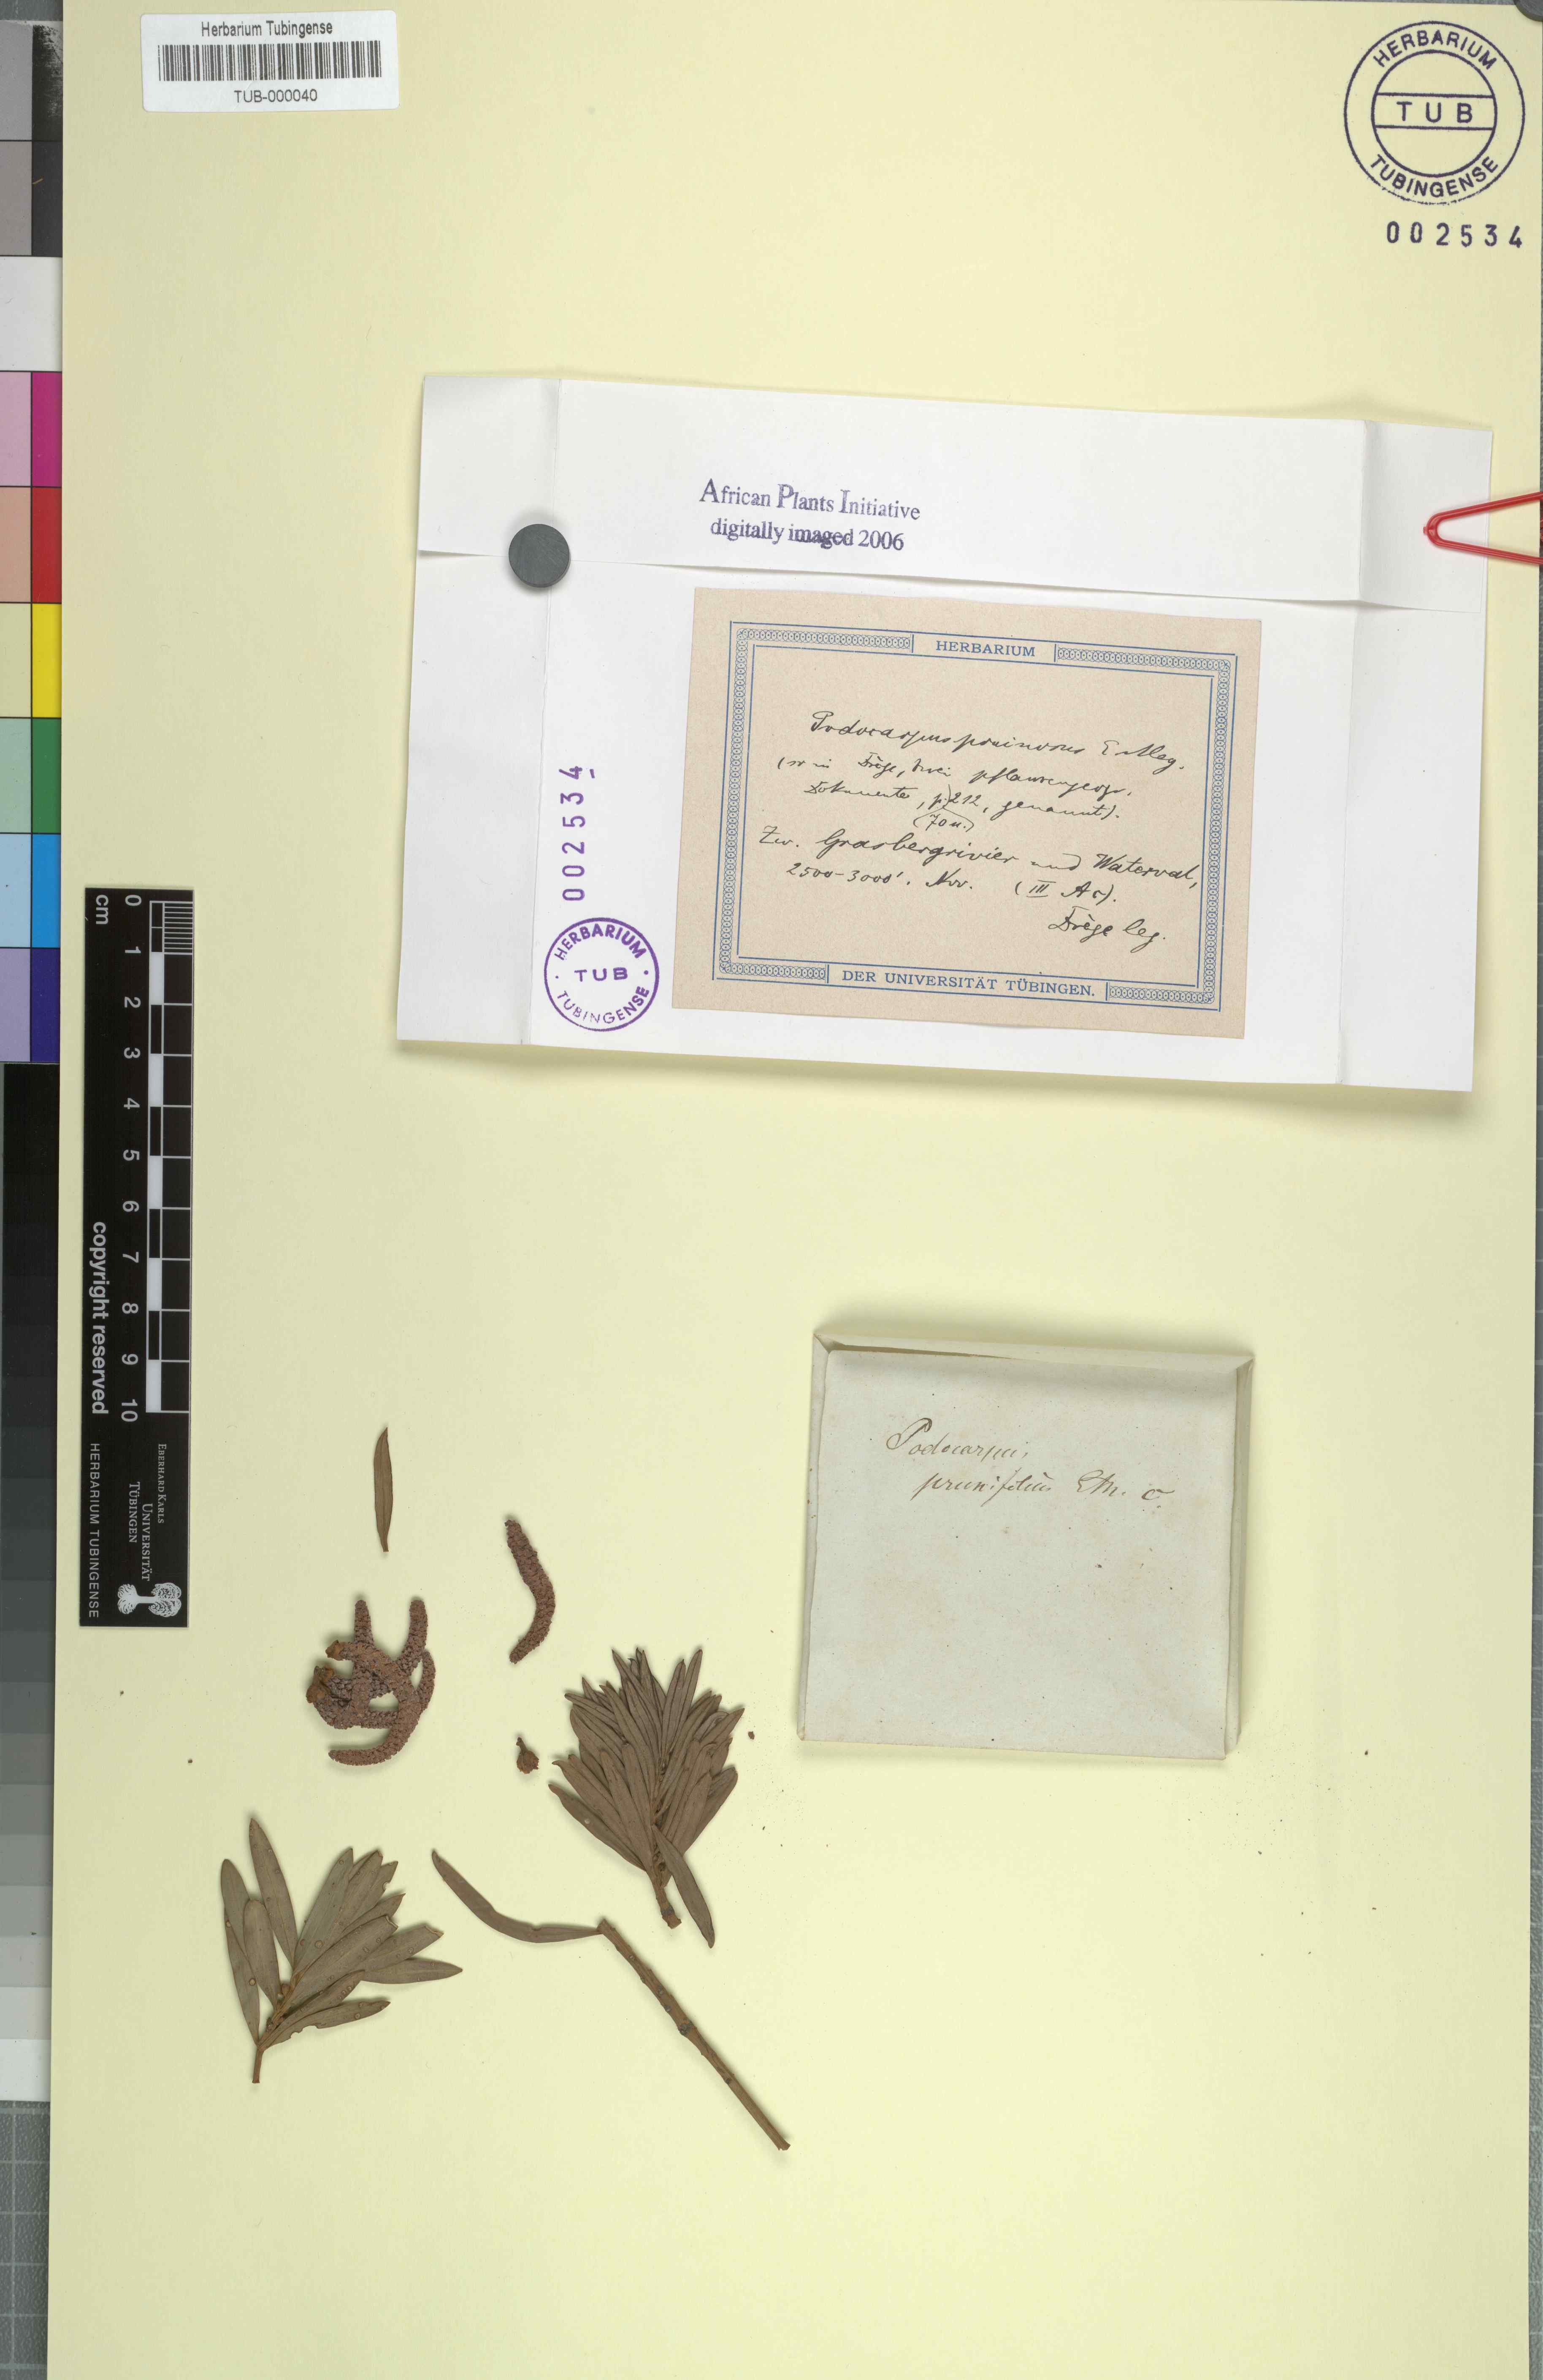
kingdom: Plantae
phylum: Tracheophyta
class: Pinopsida
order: Pinales
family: Podocarpaceae
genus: Podocarpus
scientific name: Podocarpus elongatus
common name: Breede river yellowwood
